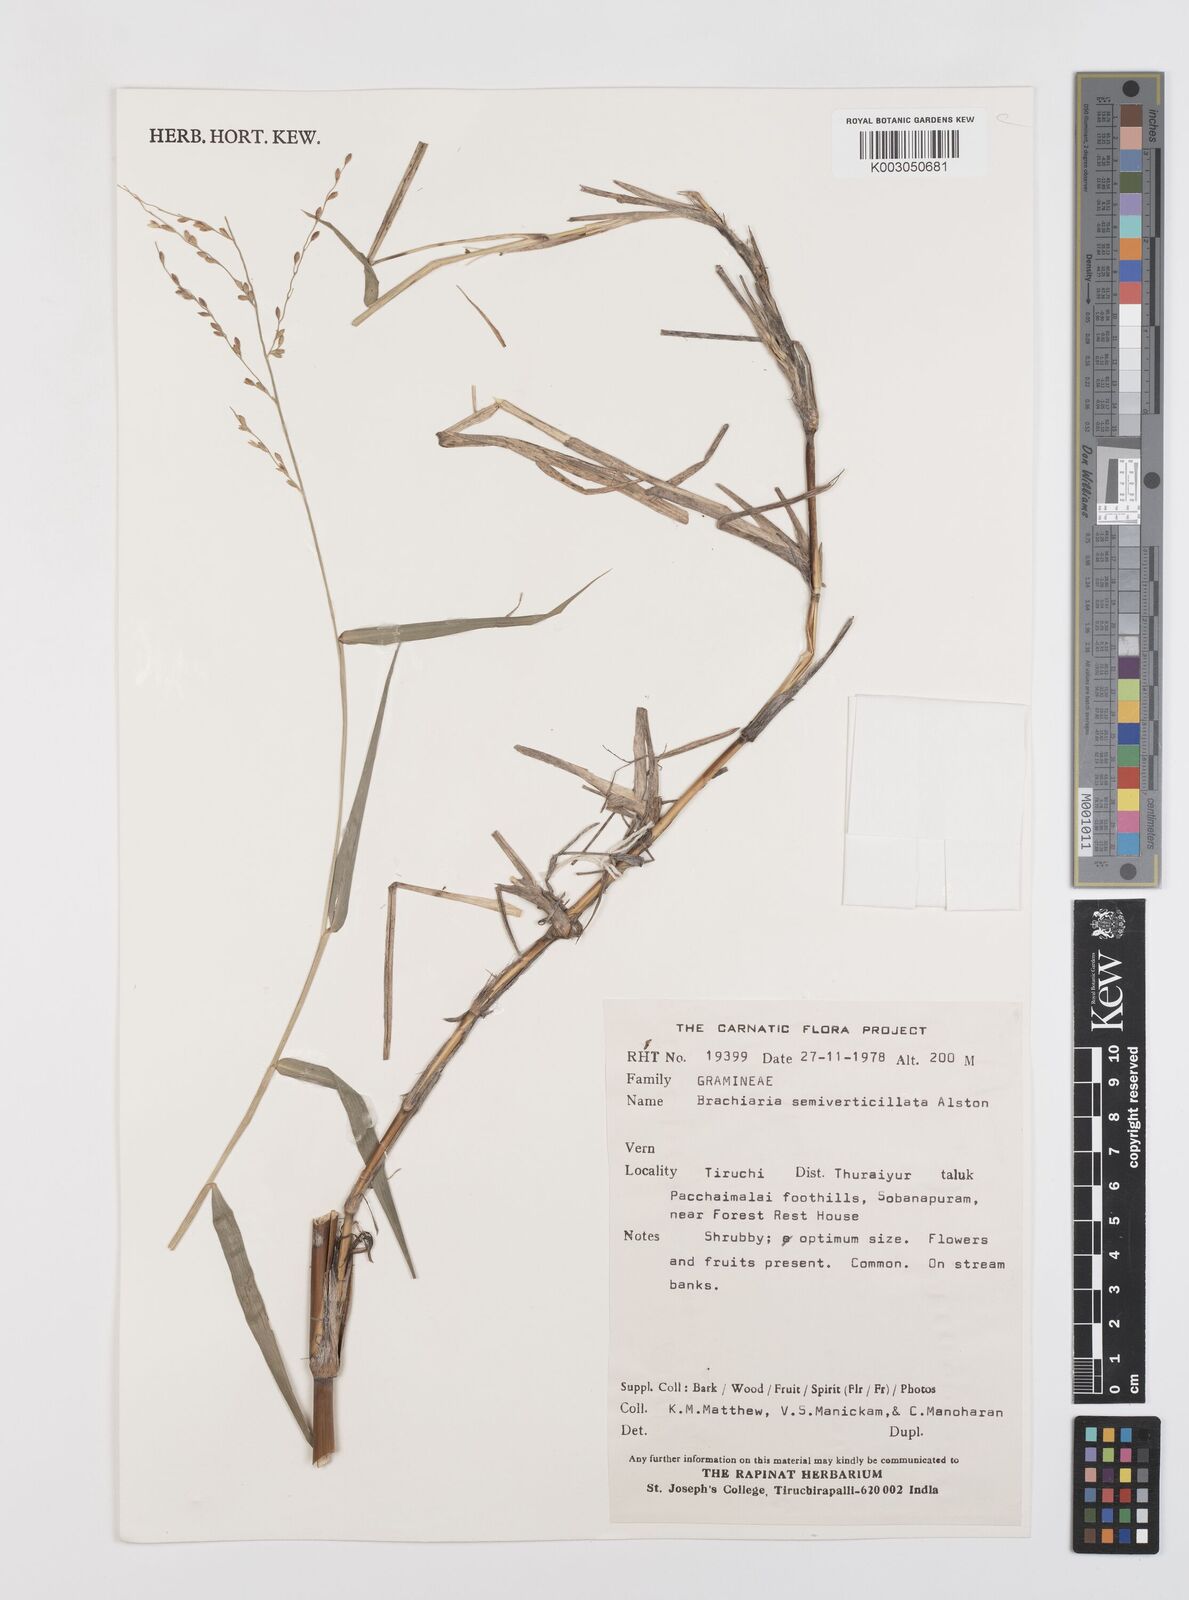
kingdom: Plantae
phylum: Tracheophyta
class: Liliopsida
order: Poales
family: Poaceae
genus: Urochloa
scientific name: Urochloa Brachiaria semiverticillata
